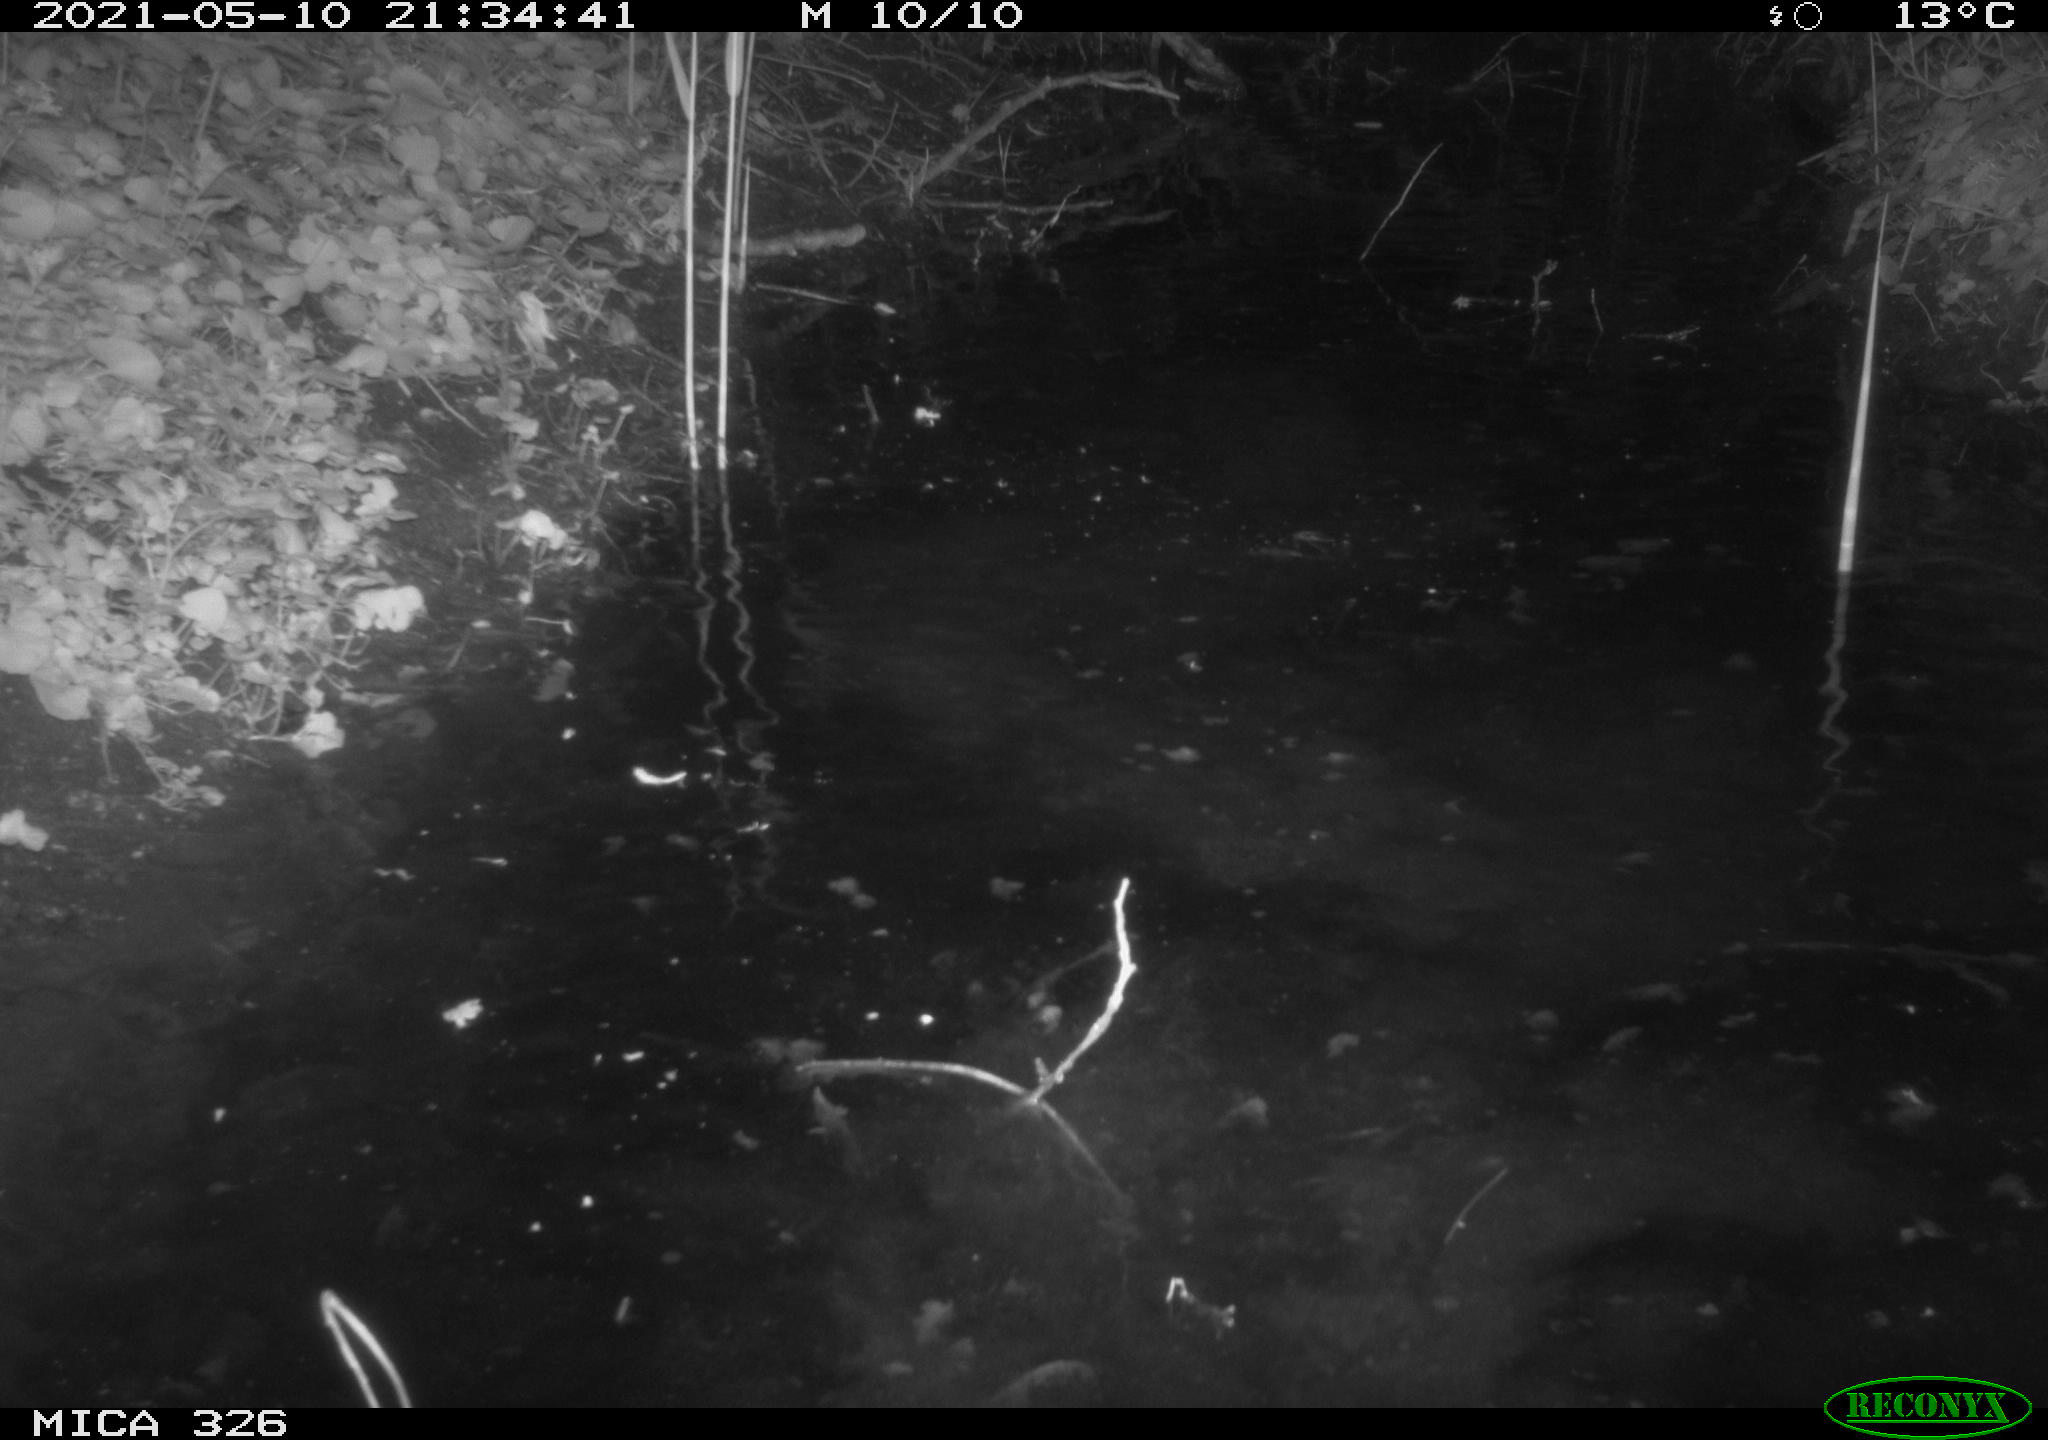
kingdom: Animalia
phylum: Chordata
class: Mammalia
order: Carnivora
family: Mustelidae
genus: Lutra
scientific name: Lutra lutra
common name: European otter
